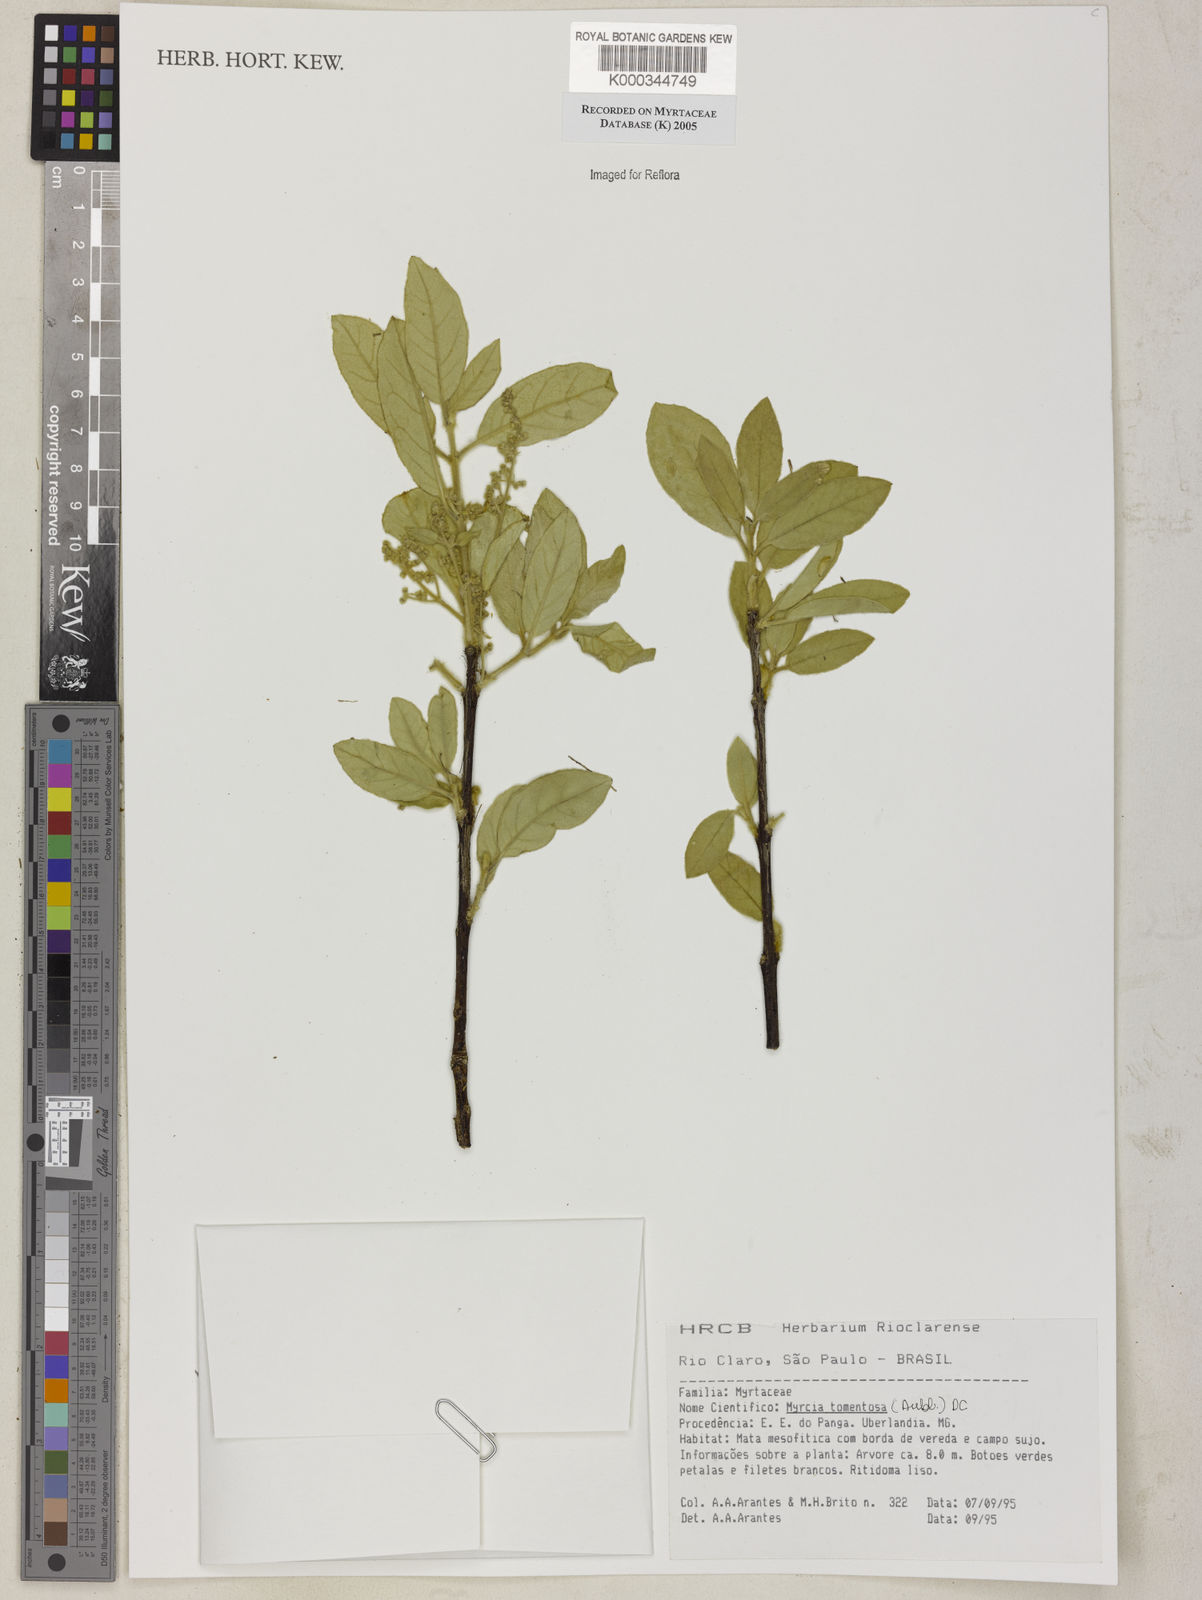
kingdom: Plantae
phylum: Tracheophyta
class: Magnoliopsida
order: Myrtales
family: Myrtaceae
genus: Myrcia
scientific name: Myrcia tomentosa
